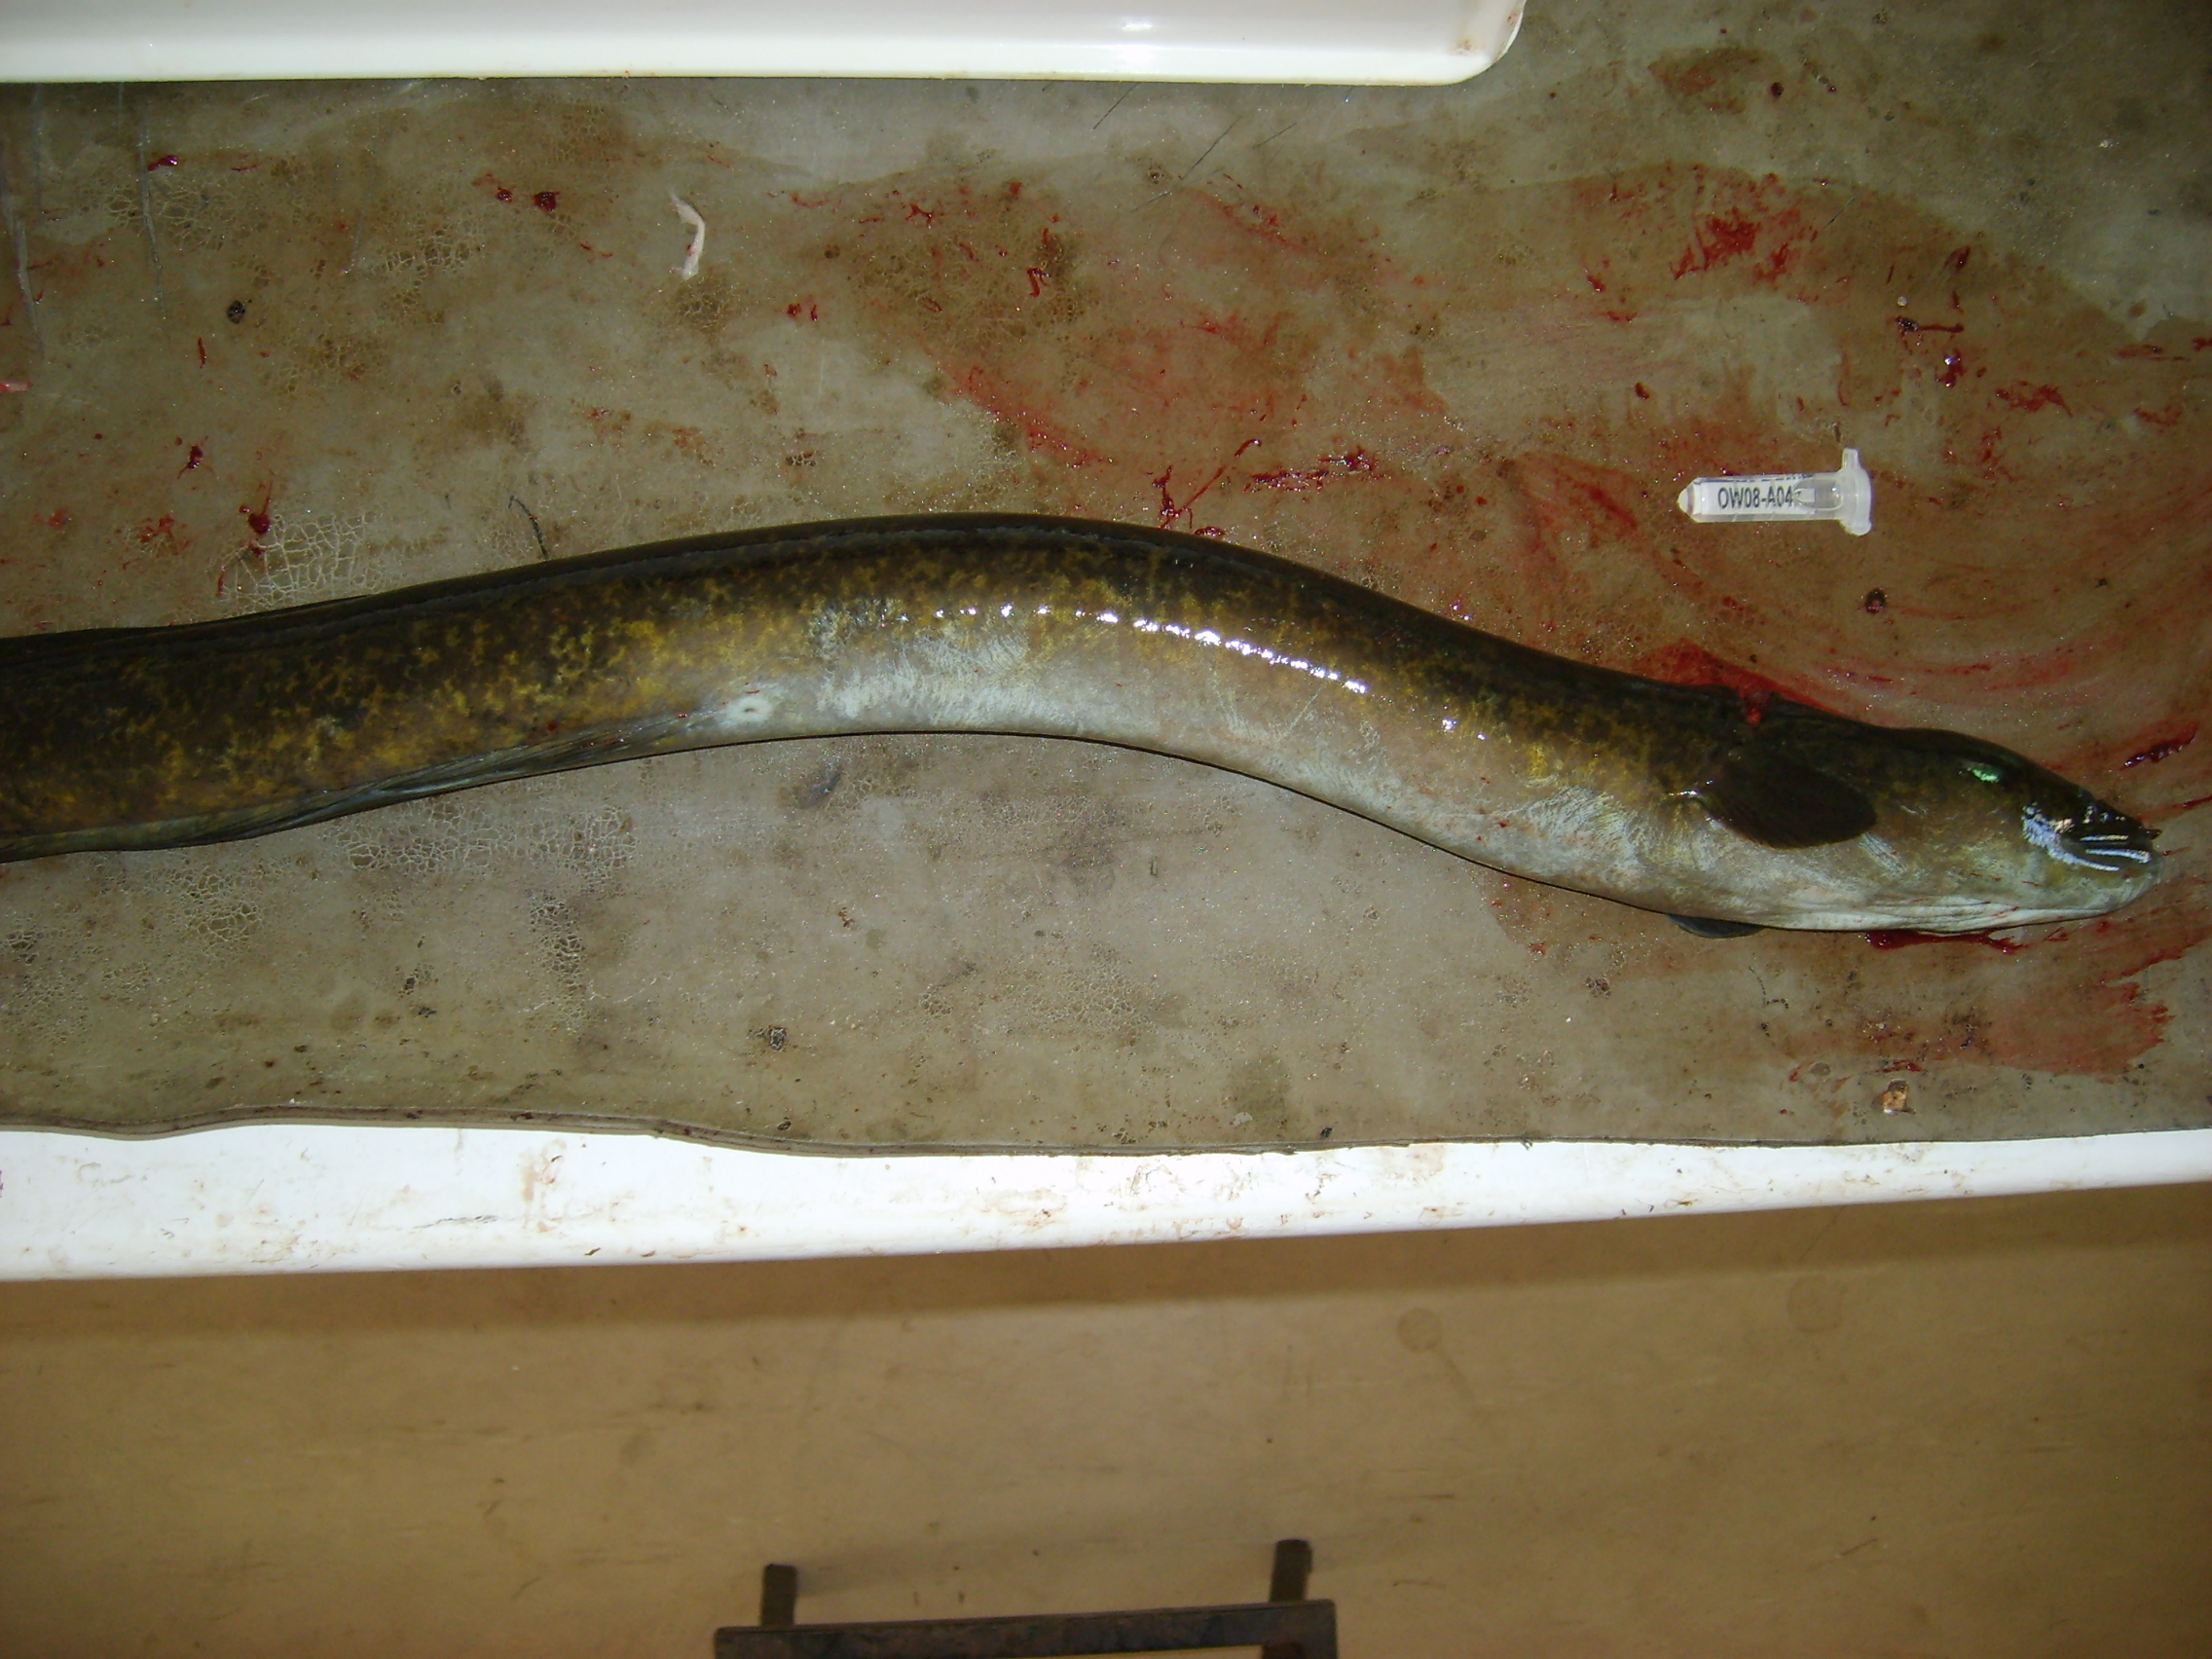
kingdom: Animalia
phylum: Chordata
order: Anguilliformes
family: Anguillidae
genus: Anguilla
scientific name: Anguilla marmorata
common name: Giant mottled eel
